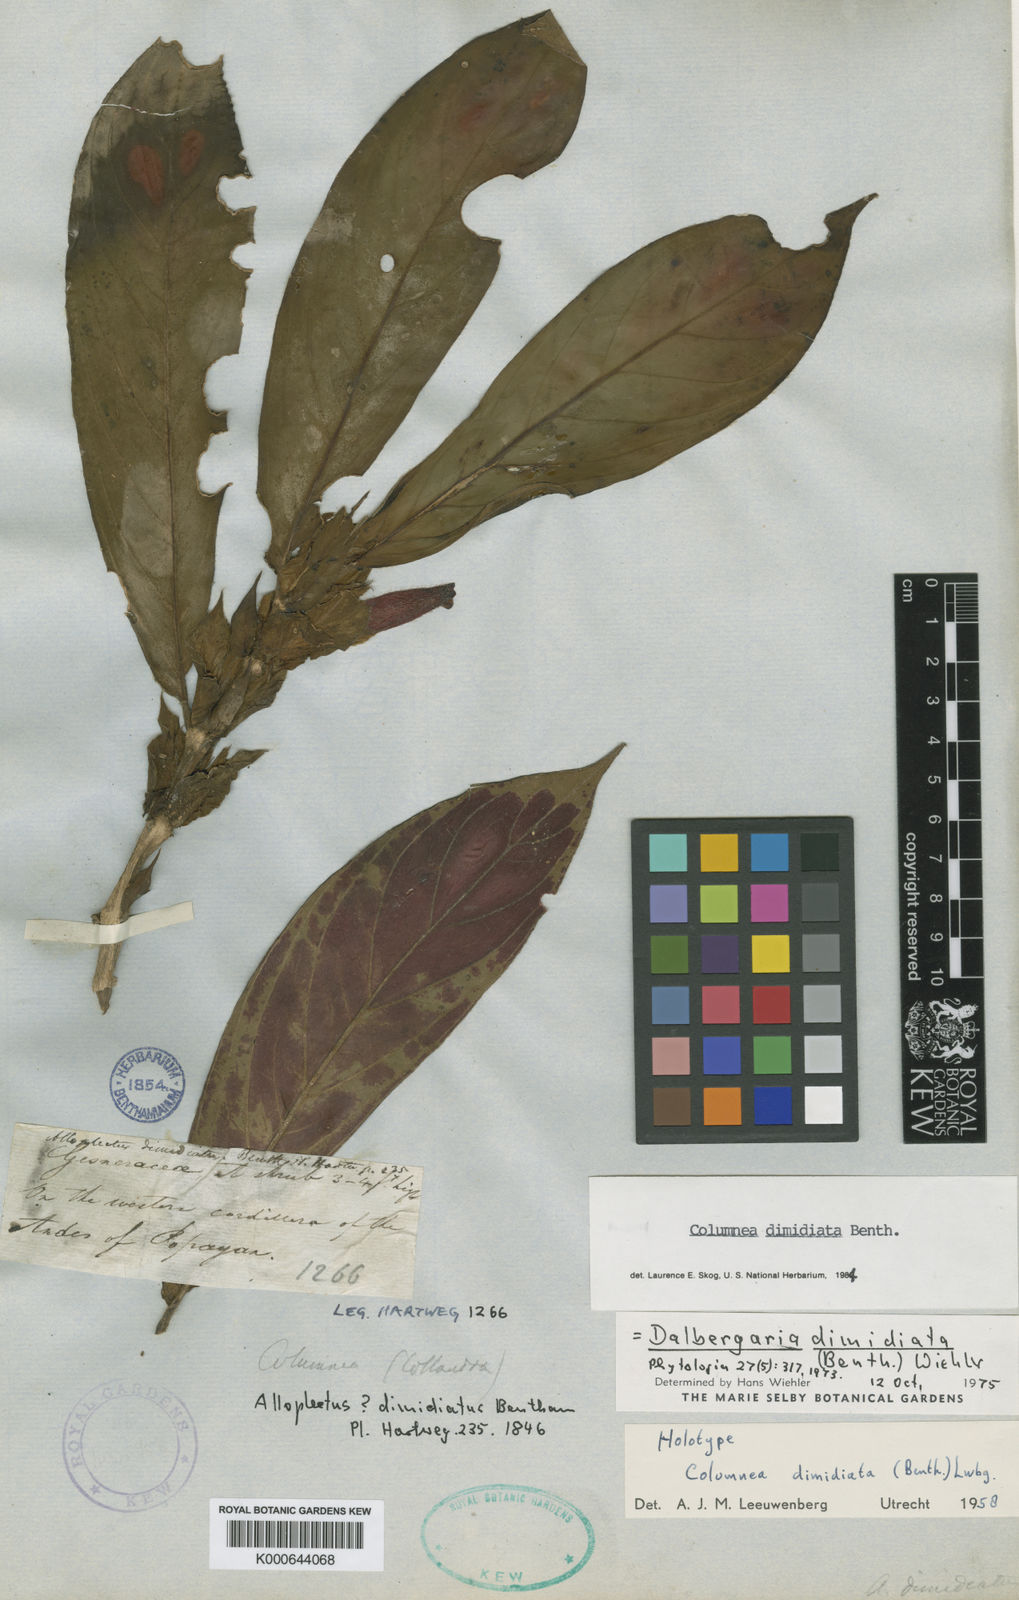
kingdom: Plantae
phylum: Tracheophyta
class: Magnoliopsida
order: Lamiales
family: Gesneriaceae
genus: Columnea
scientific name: Columnea dimidiata
